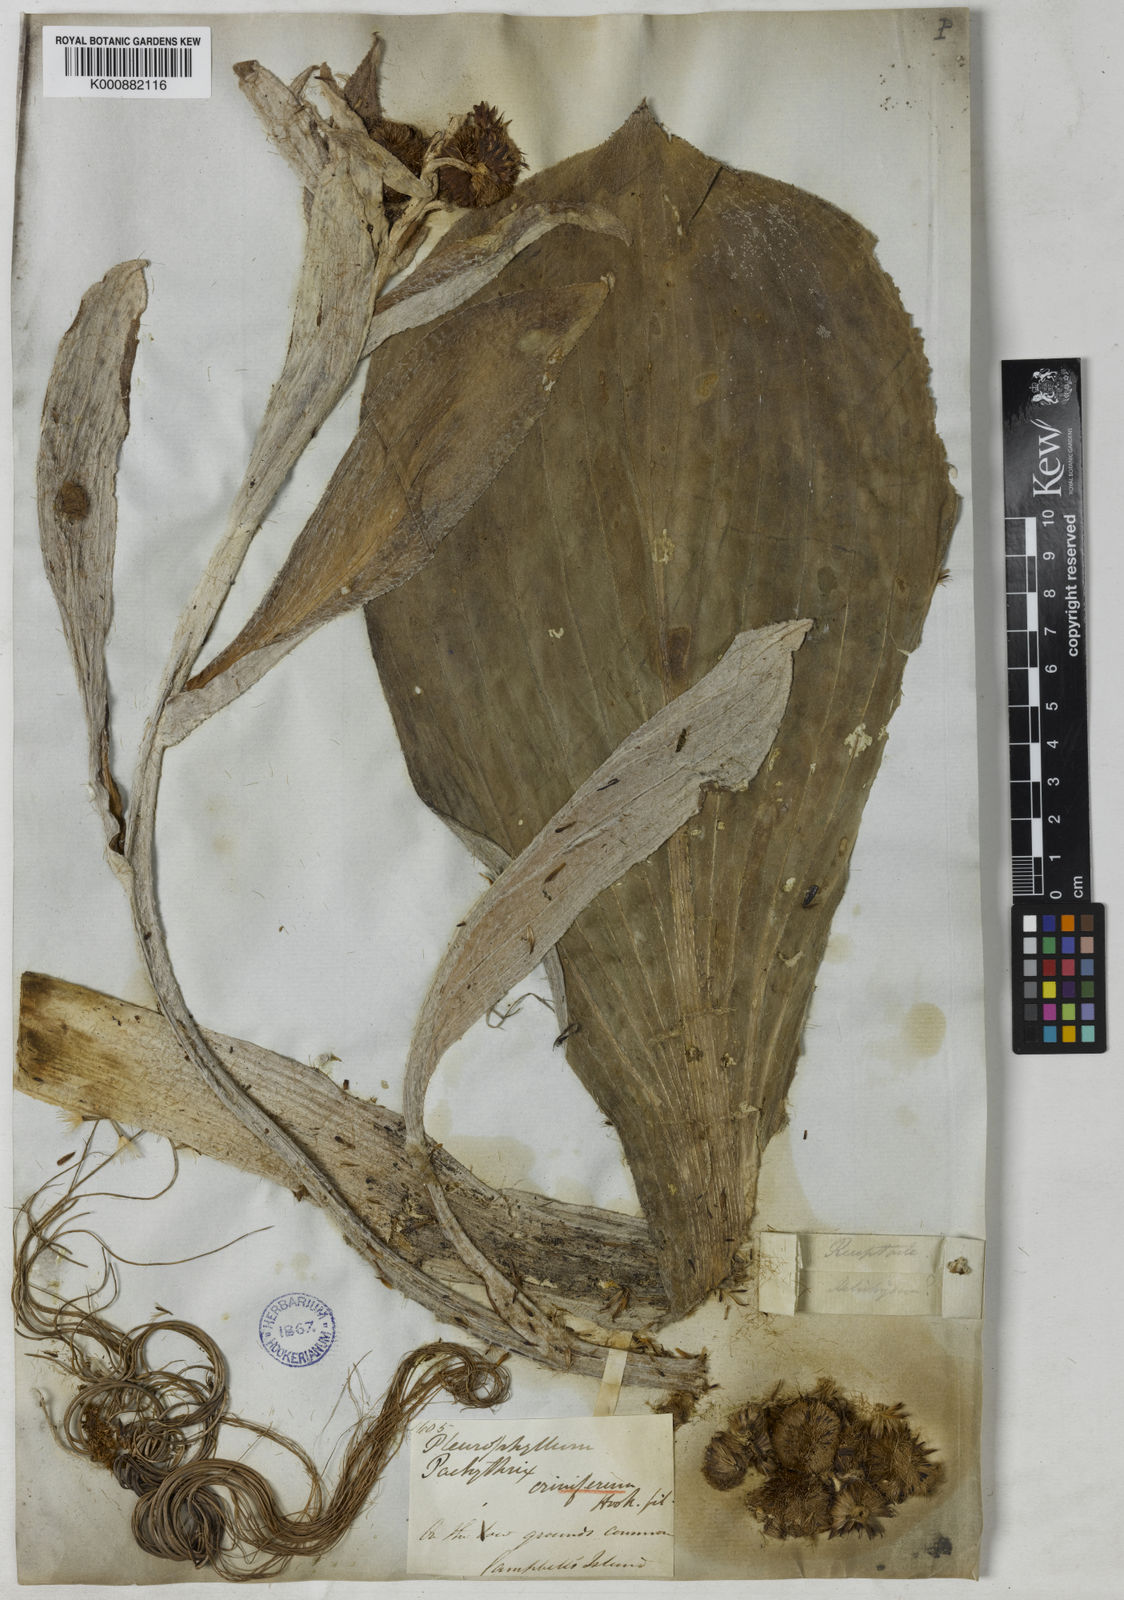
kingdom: Plantae
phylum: Tracheophyta
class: Magnoliopsida
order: Asterales
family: Asteraceae
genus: Pleurophyllum
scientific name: Pleurophyllum criniferum
